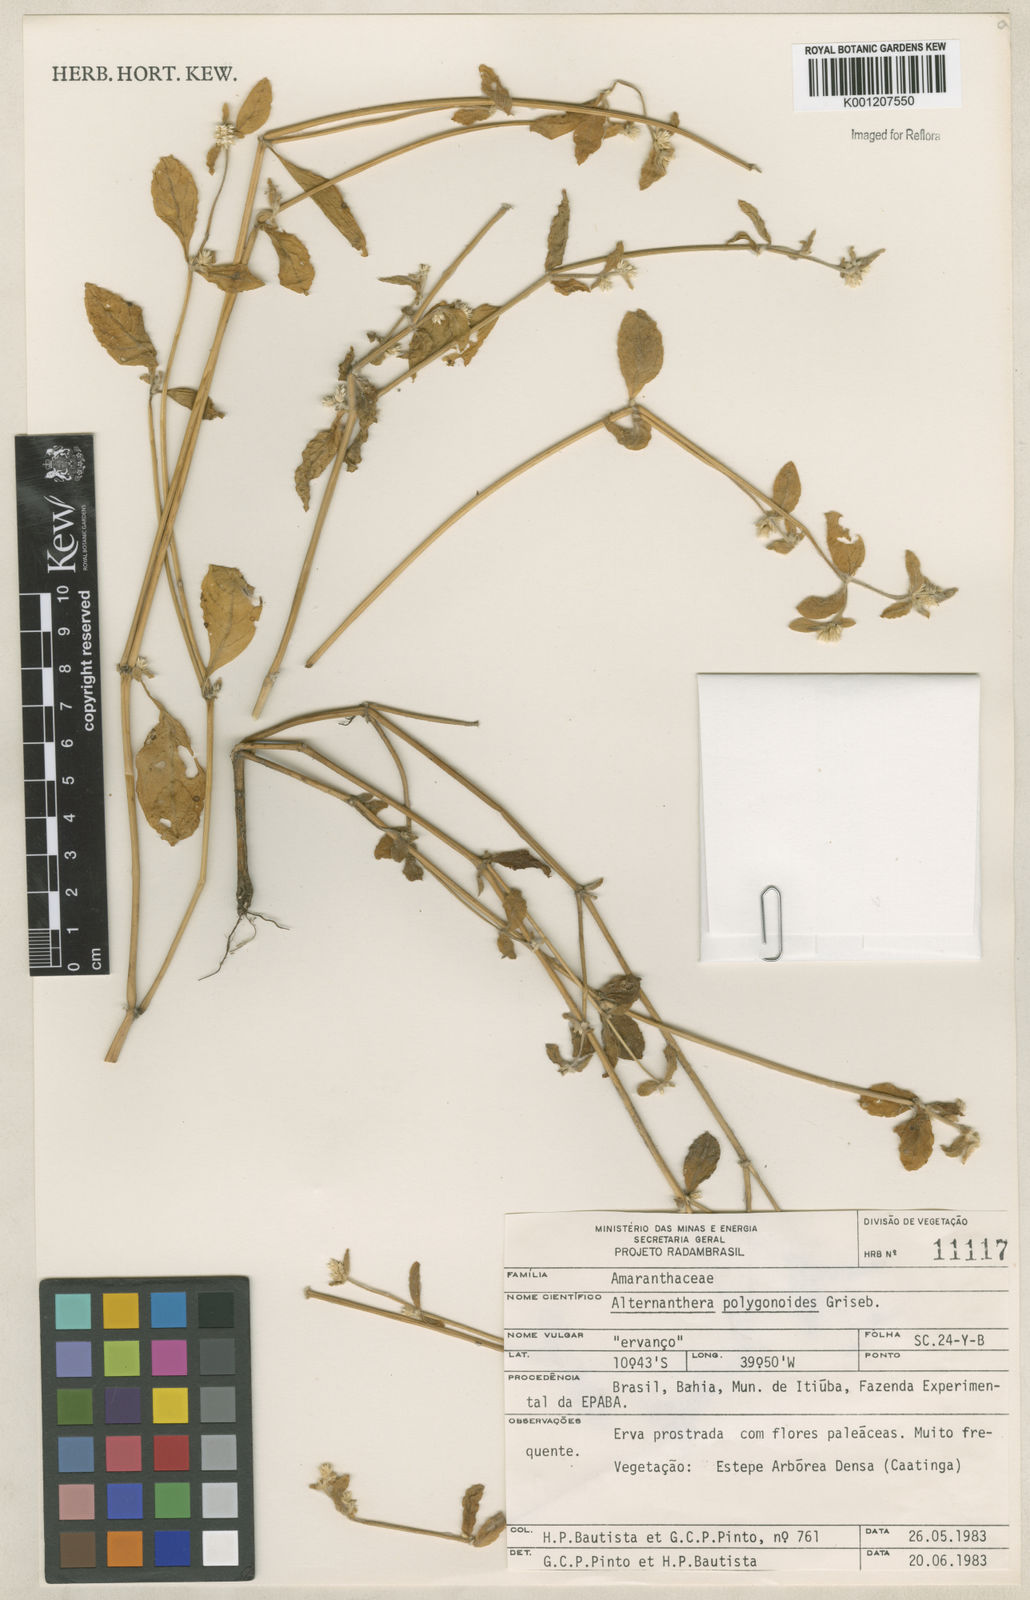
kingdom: Plantae
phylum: Tracheophyta
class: Magnoliopsida
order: Caryophyllales
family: Amaranthaceae
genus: Alternanthera
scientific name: Alternanthera
